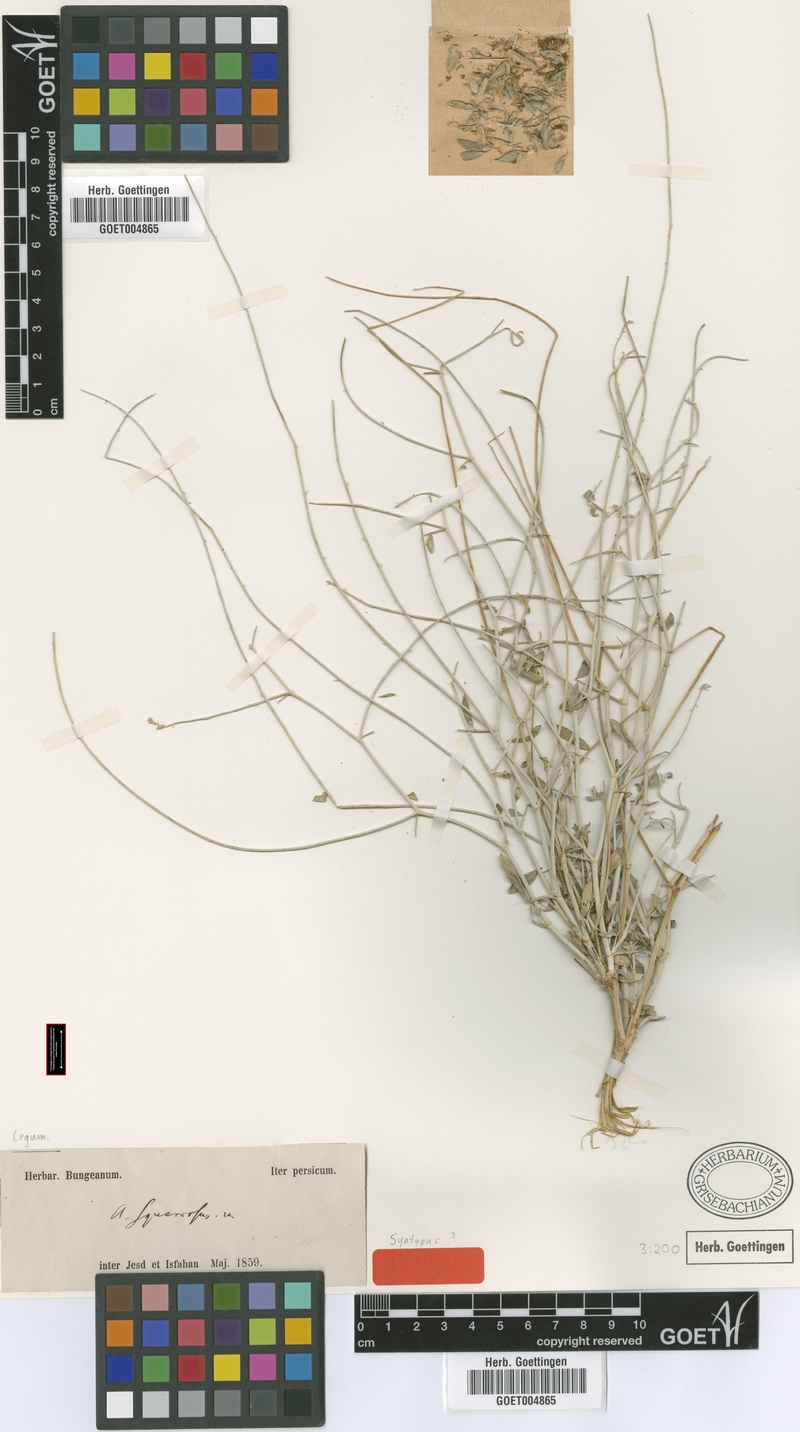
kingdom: Plantae
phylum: Tracheophyta
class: Magnoliopsida
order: Fabales
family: Fabaceae
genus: Astragalus
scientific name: Astragalus squarrosus
